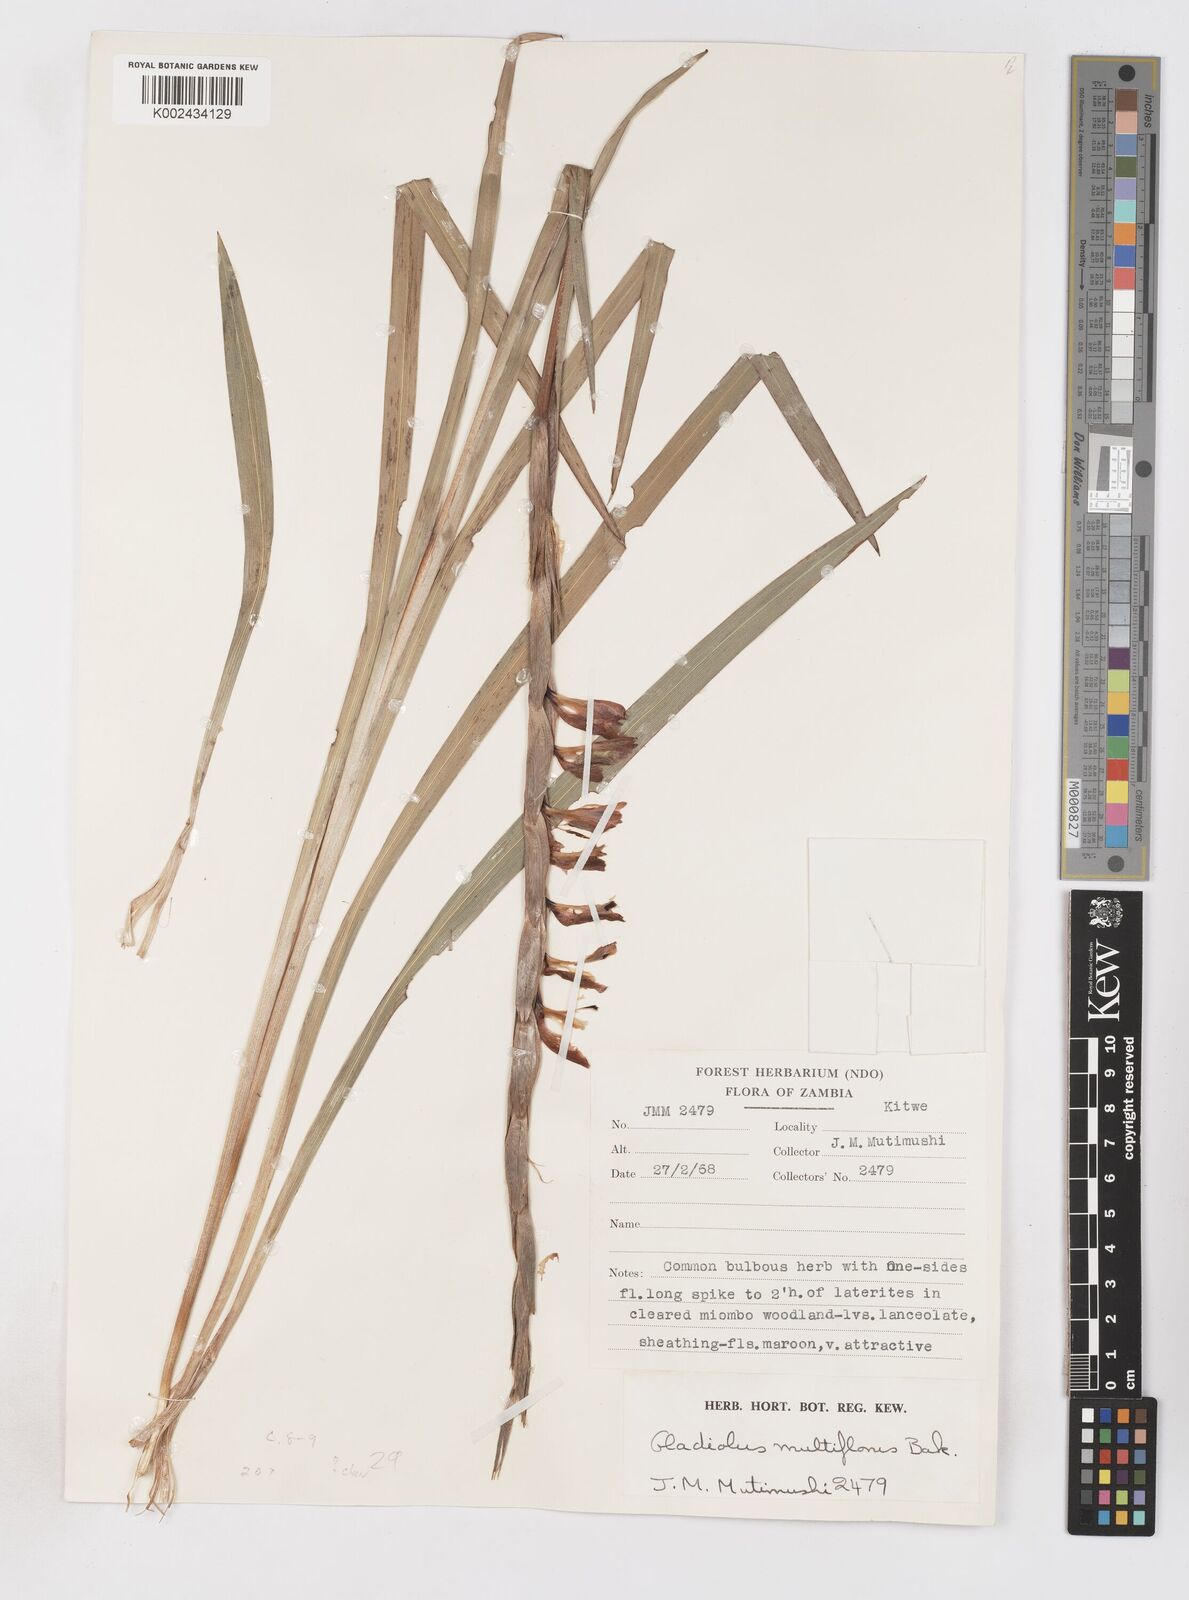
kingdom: Plantae
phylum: Tracheophyta
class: Liliopsida
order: Asparagales
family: Iridaceae
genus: Gladiolus
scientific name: Gladiolus gregarius
